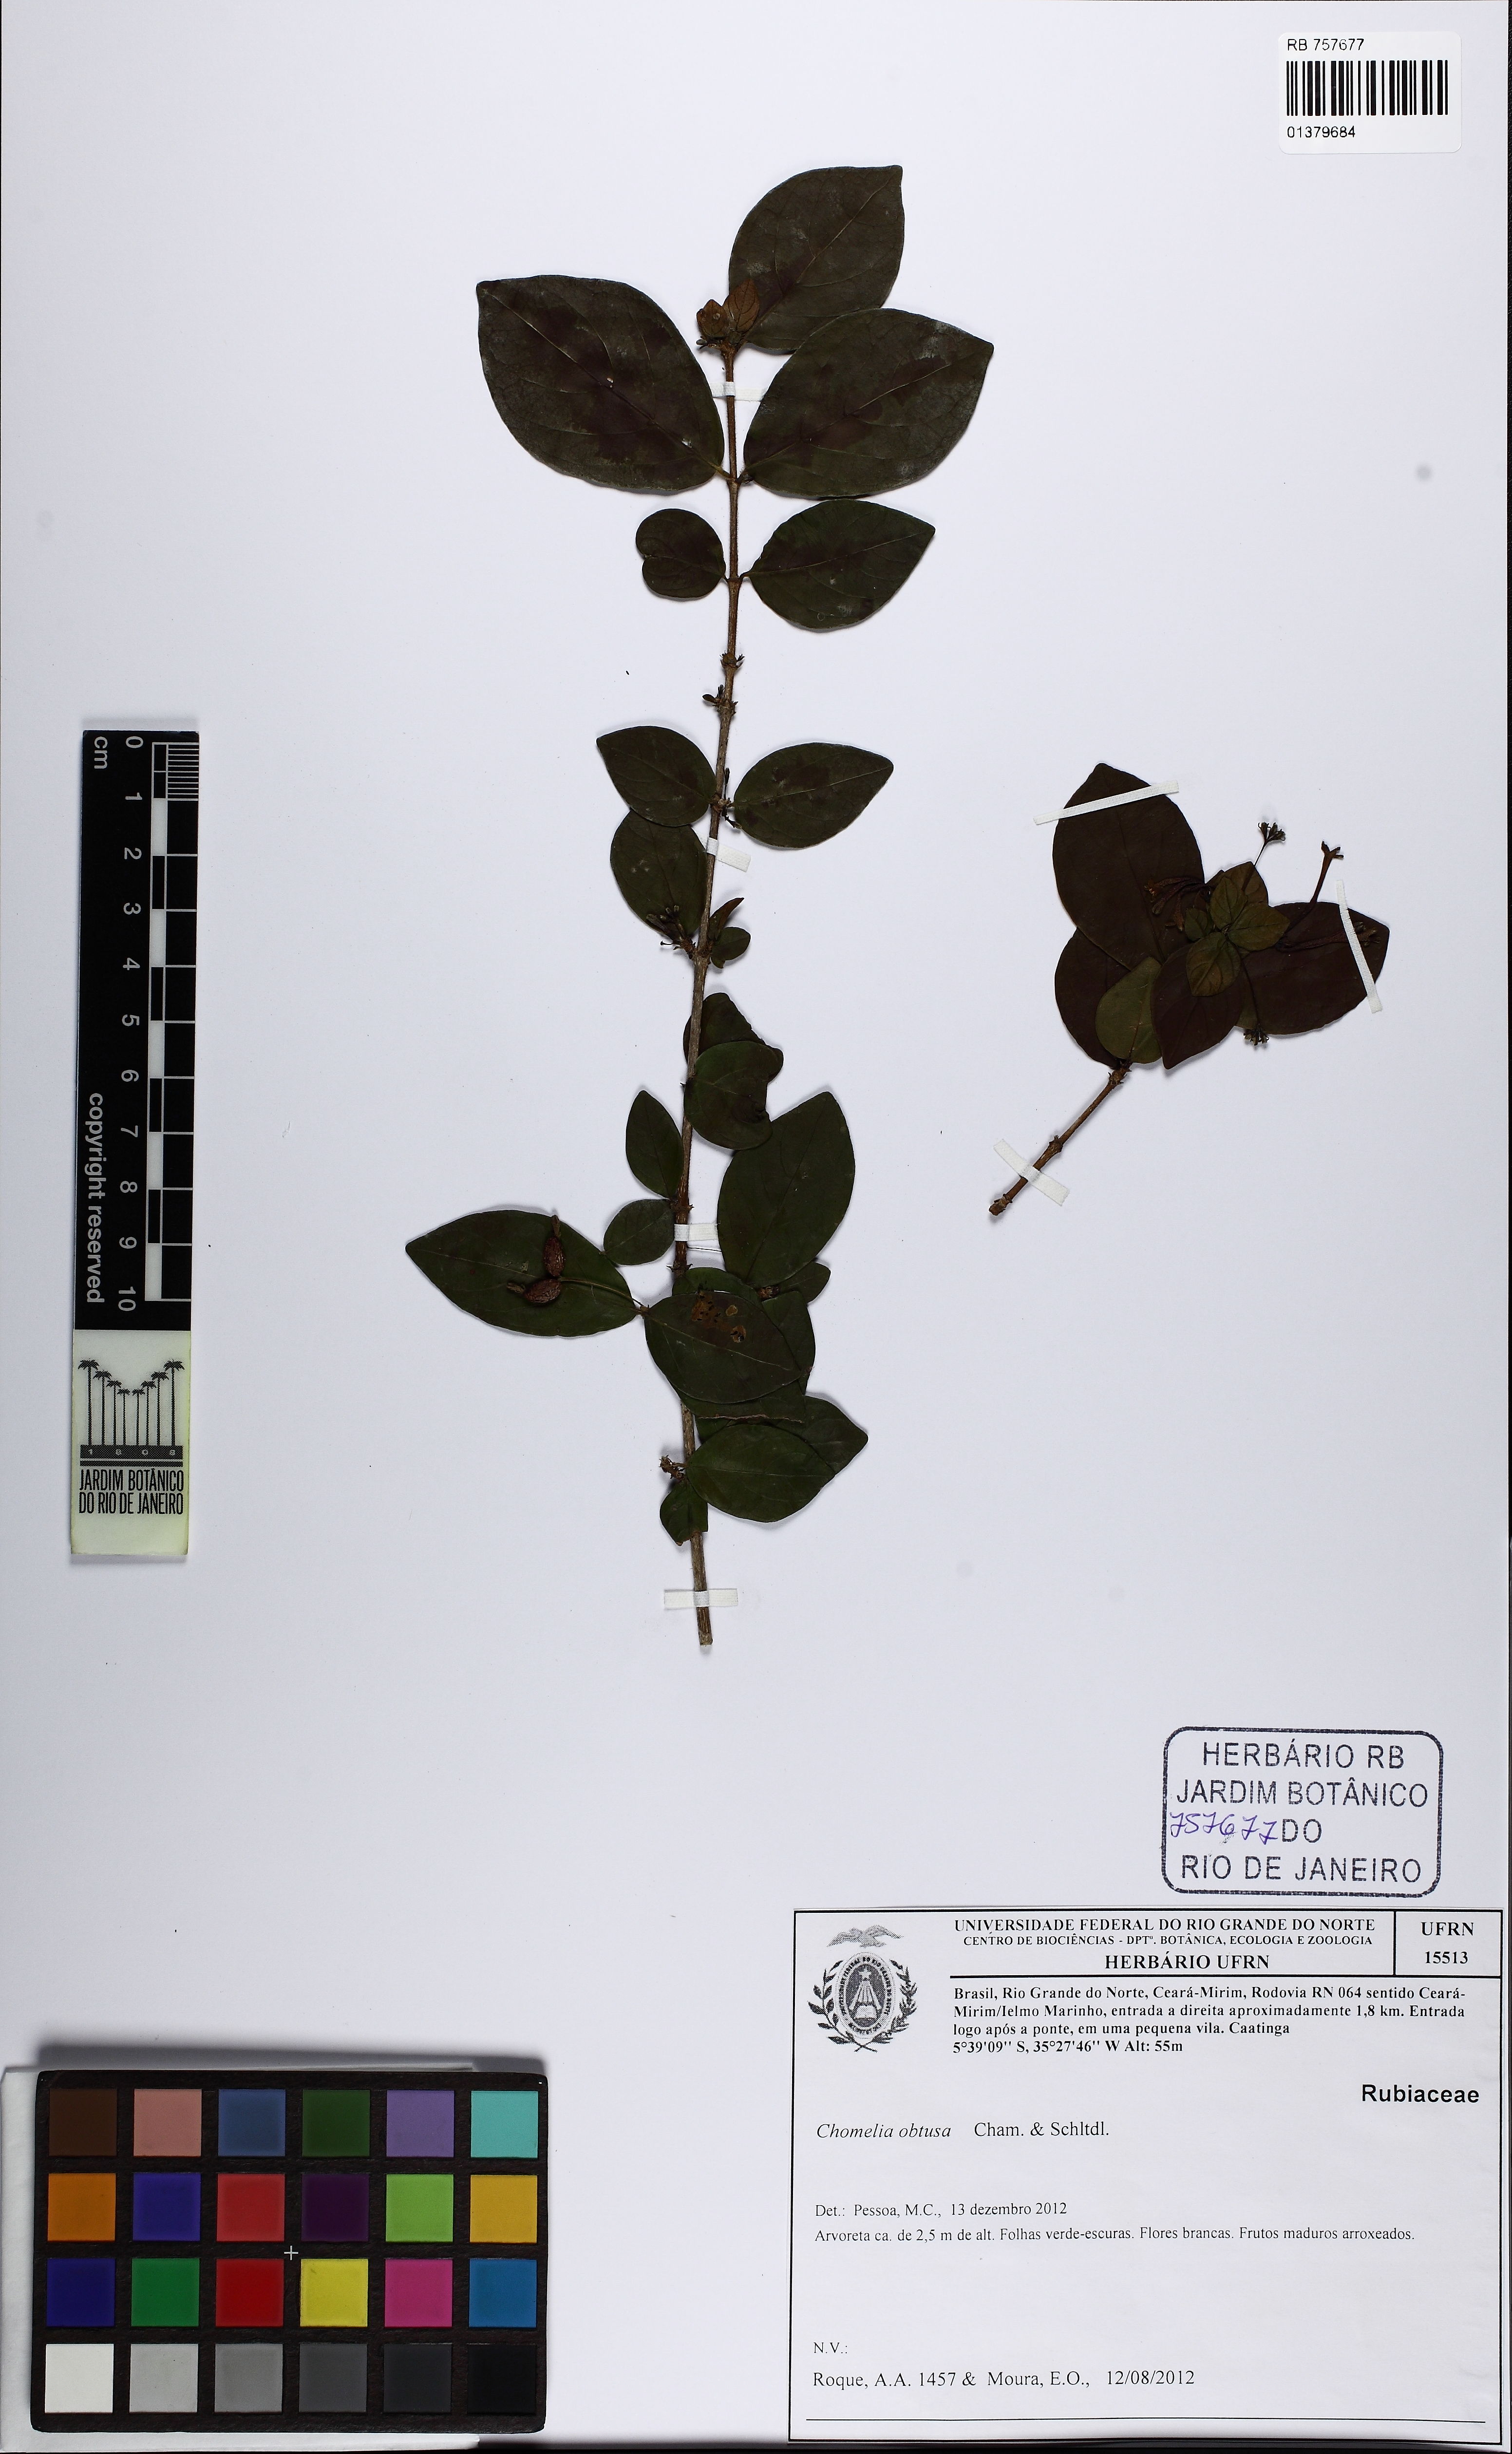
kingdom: Plantae
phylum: Tracheophyta
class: Magnoliopsida
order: Gentianales
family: Rubiaceae
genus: Chomelia
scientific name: Chomelia obtusa
